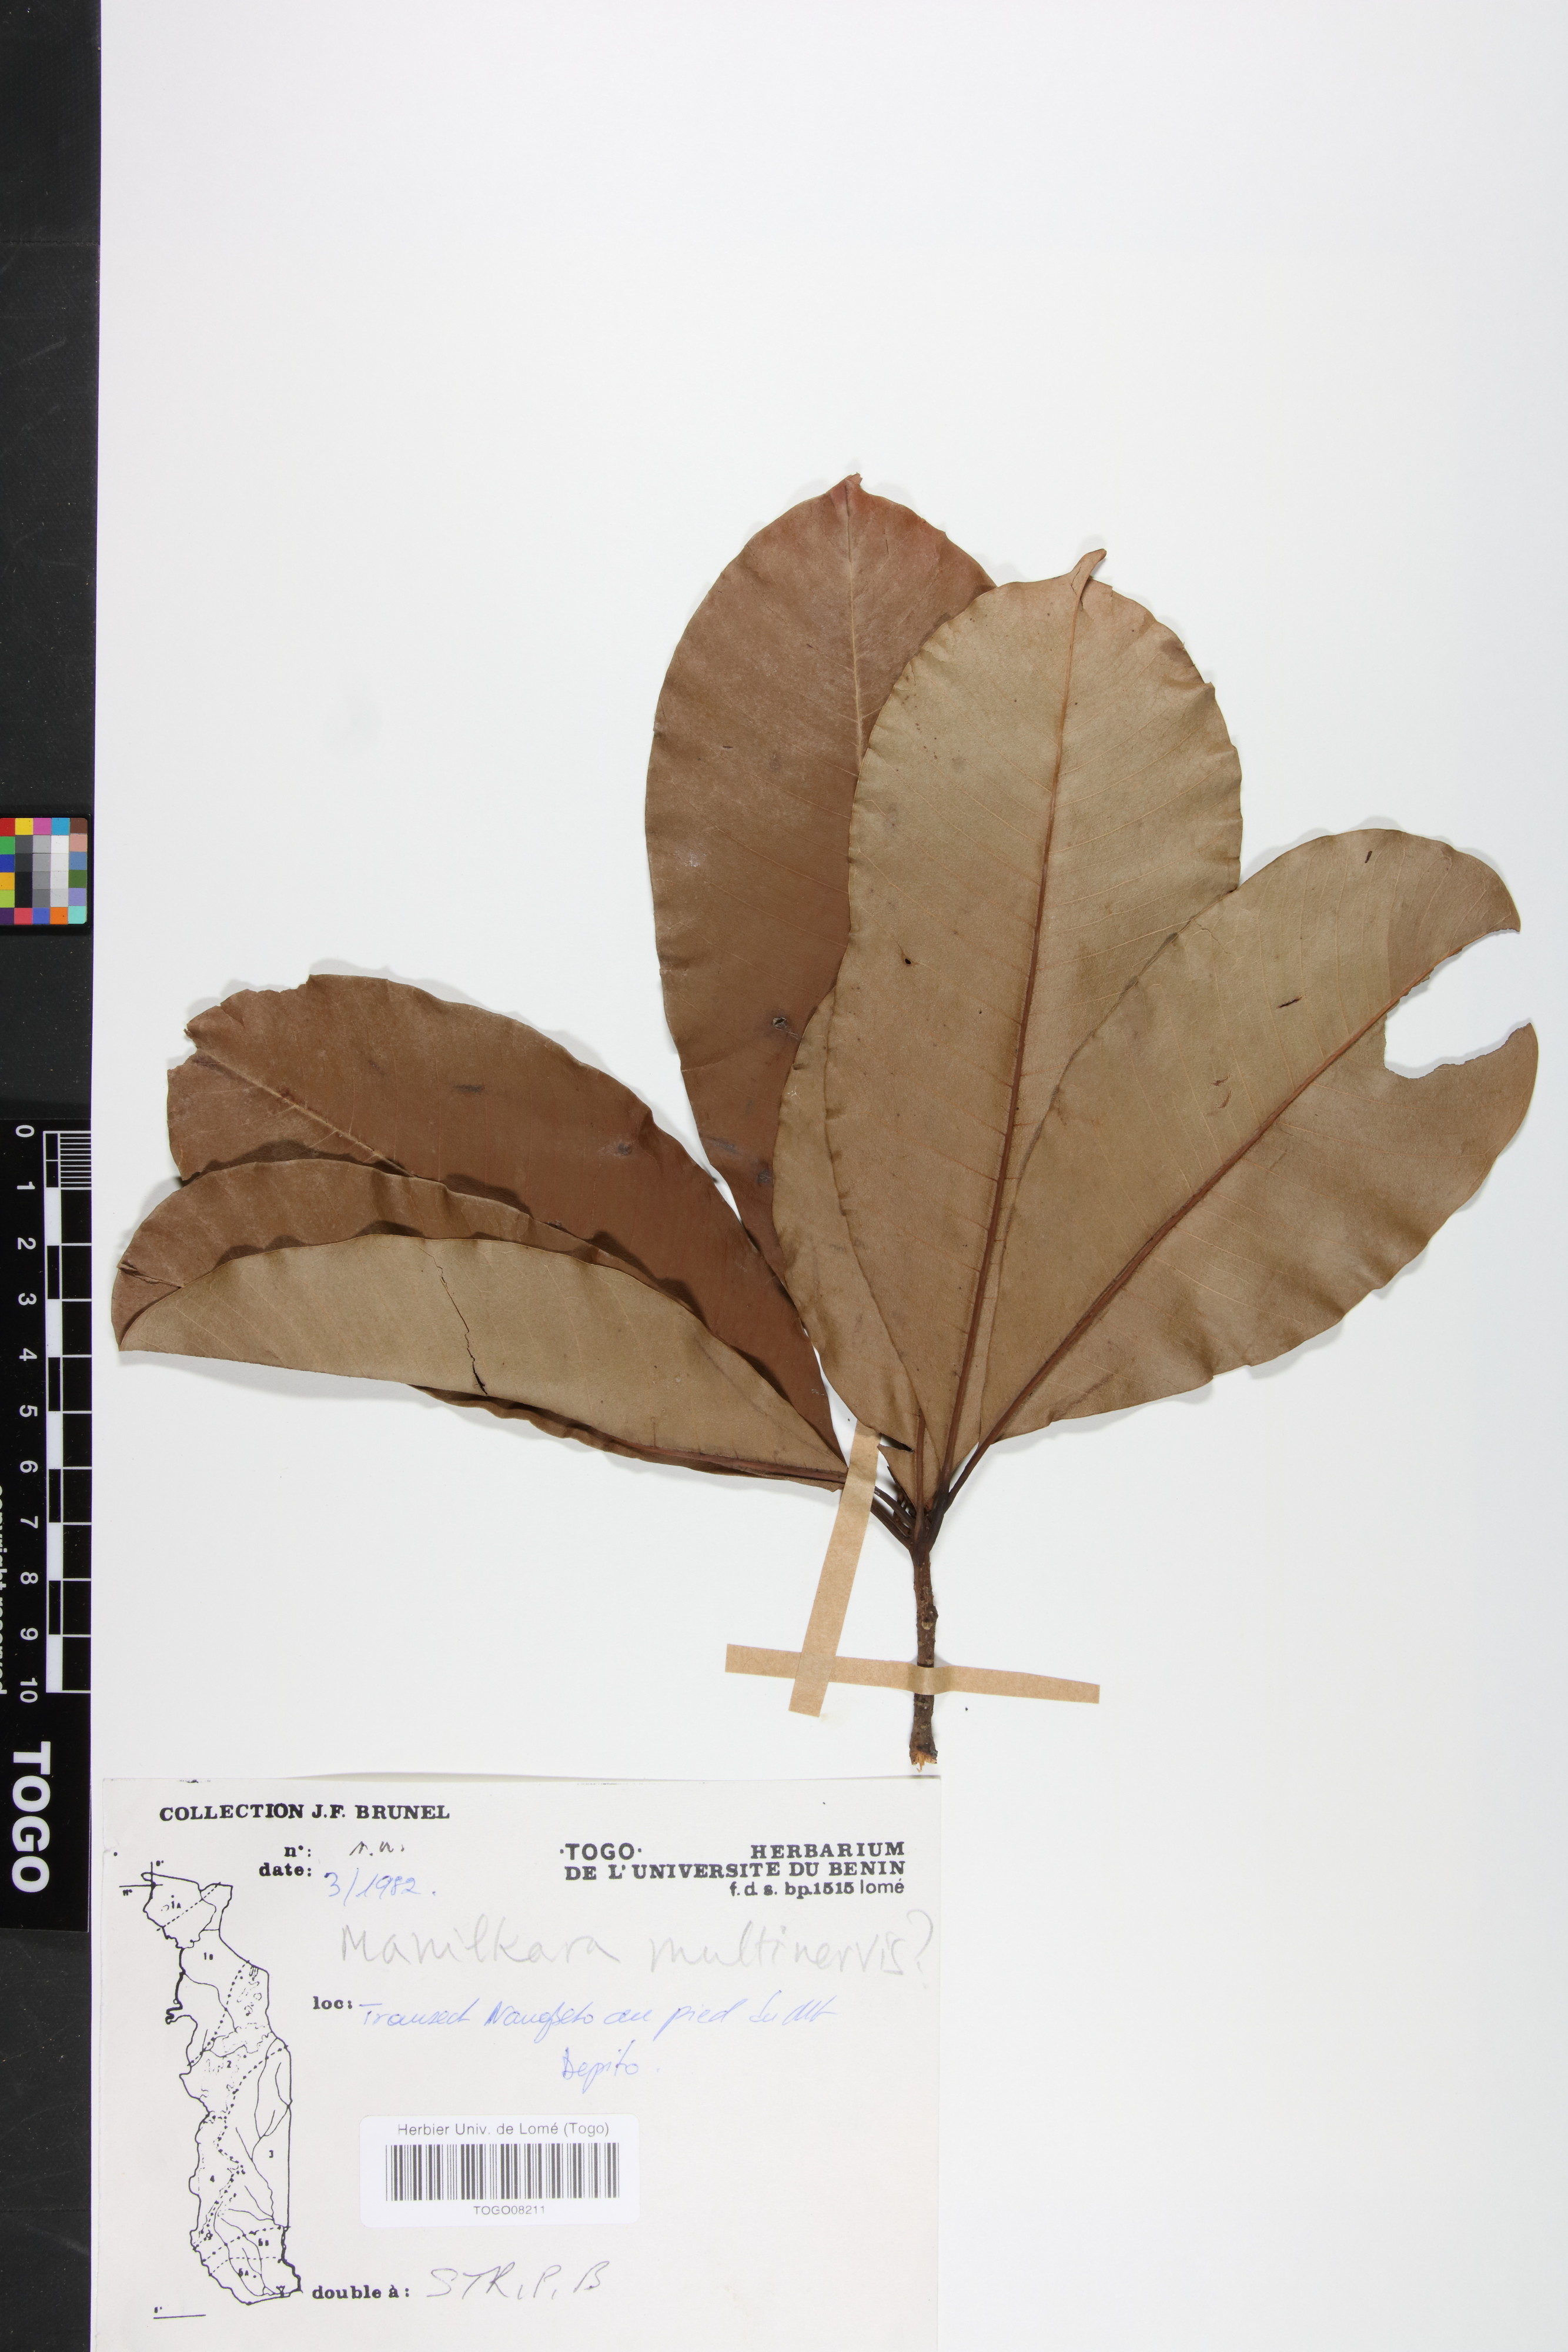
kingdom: Plantae
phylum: Tracheophyta
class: Magnoliopsida
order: Ericales
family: Sapotaceae
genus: Manilkara
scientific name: Manilkara obovata
